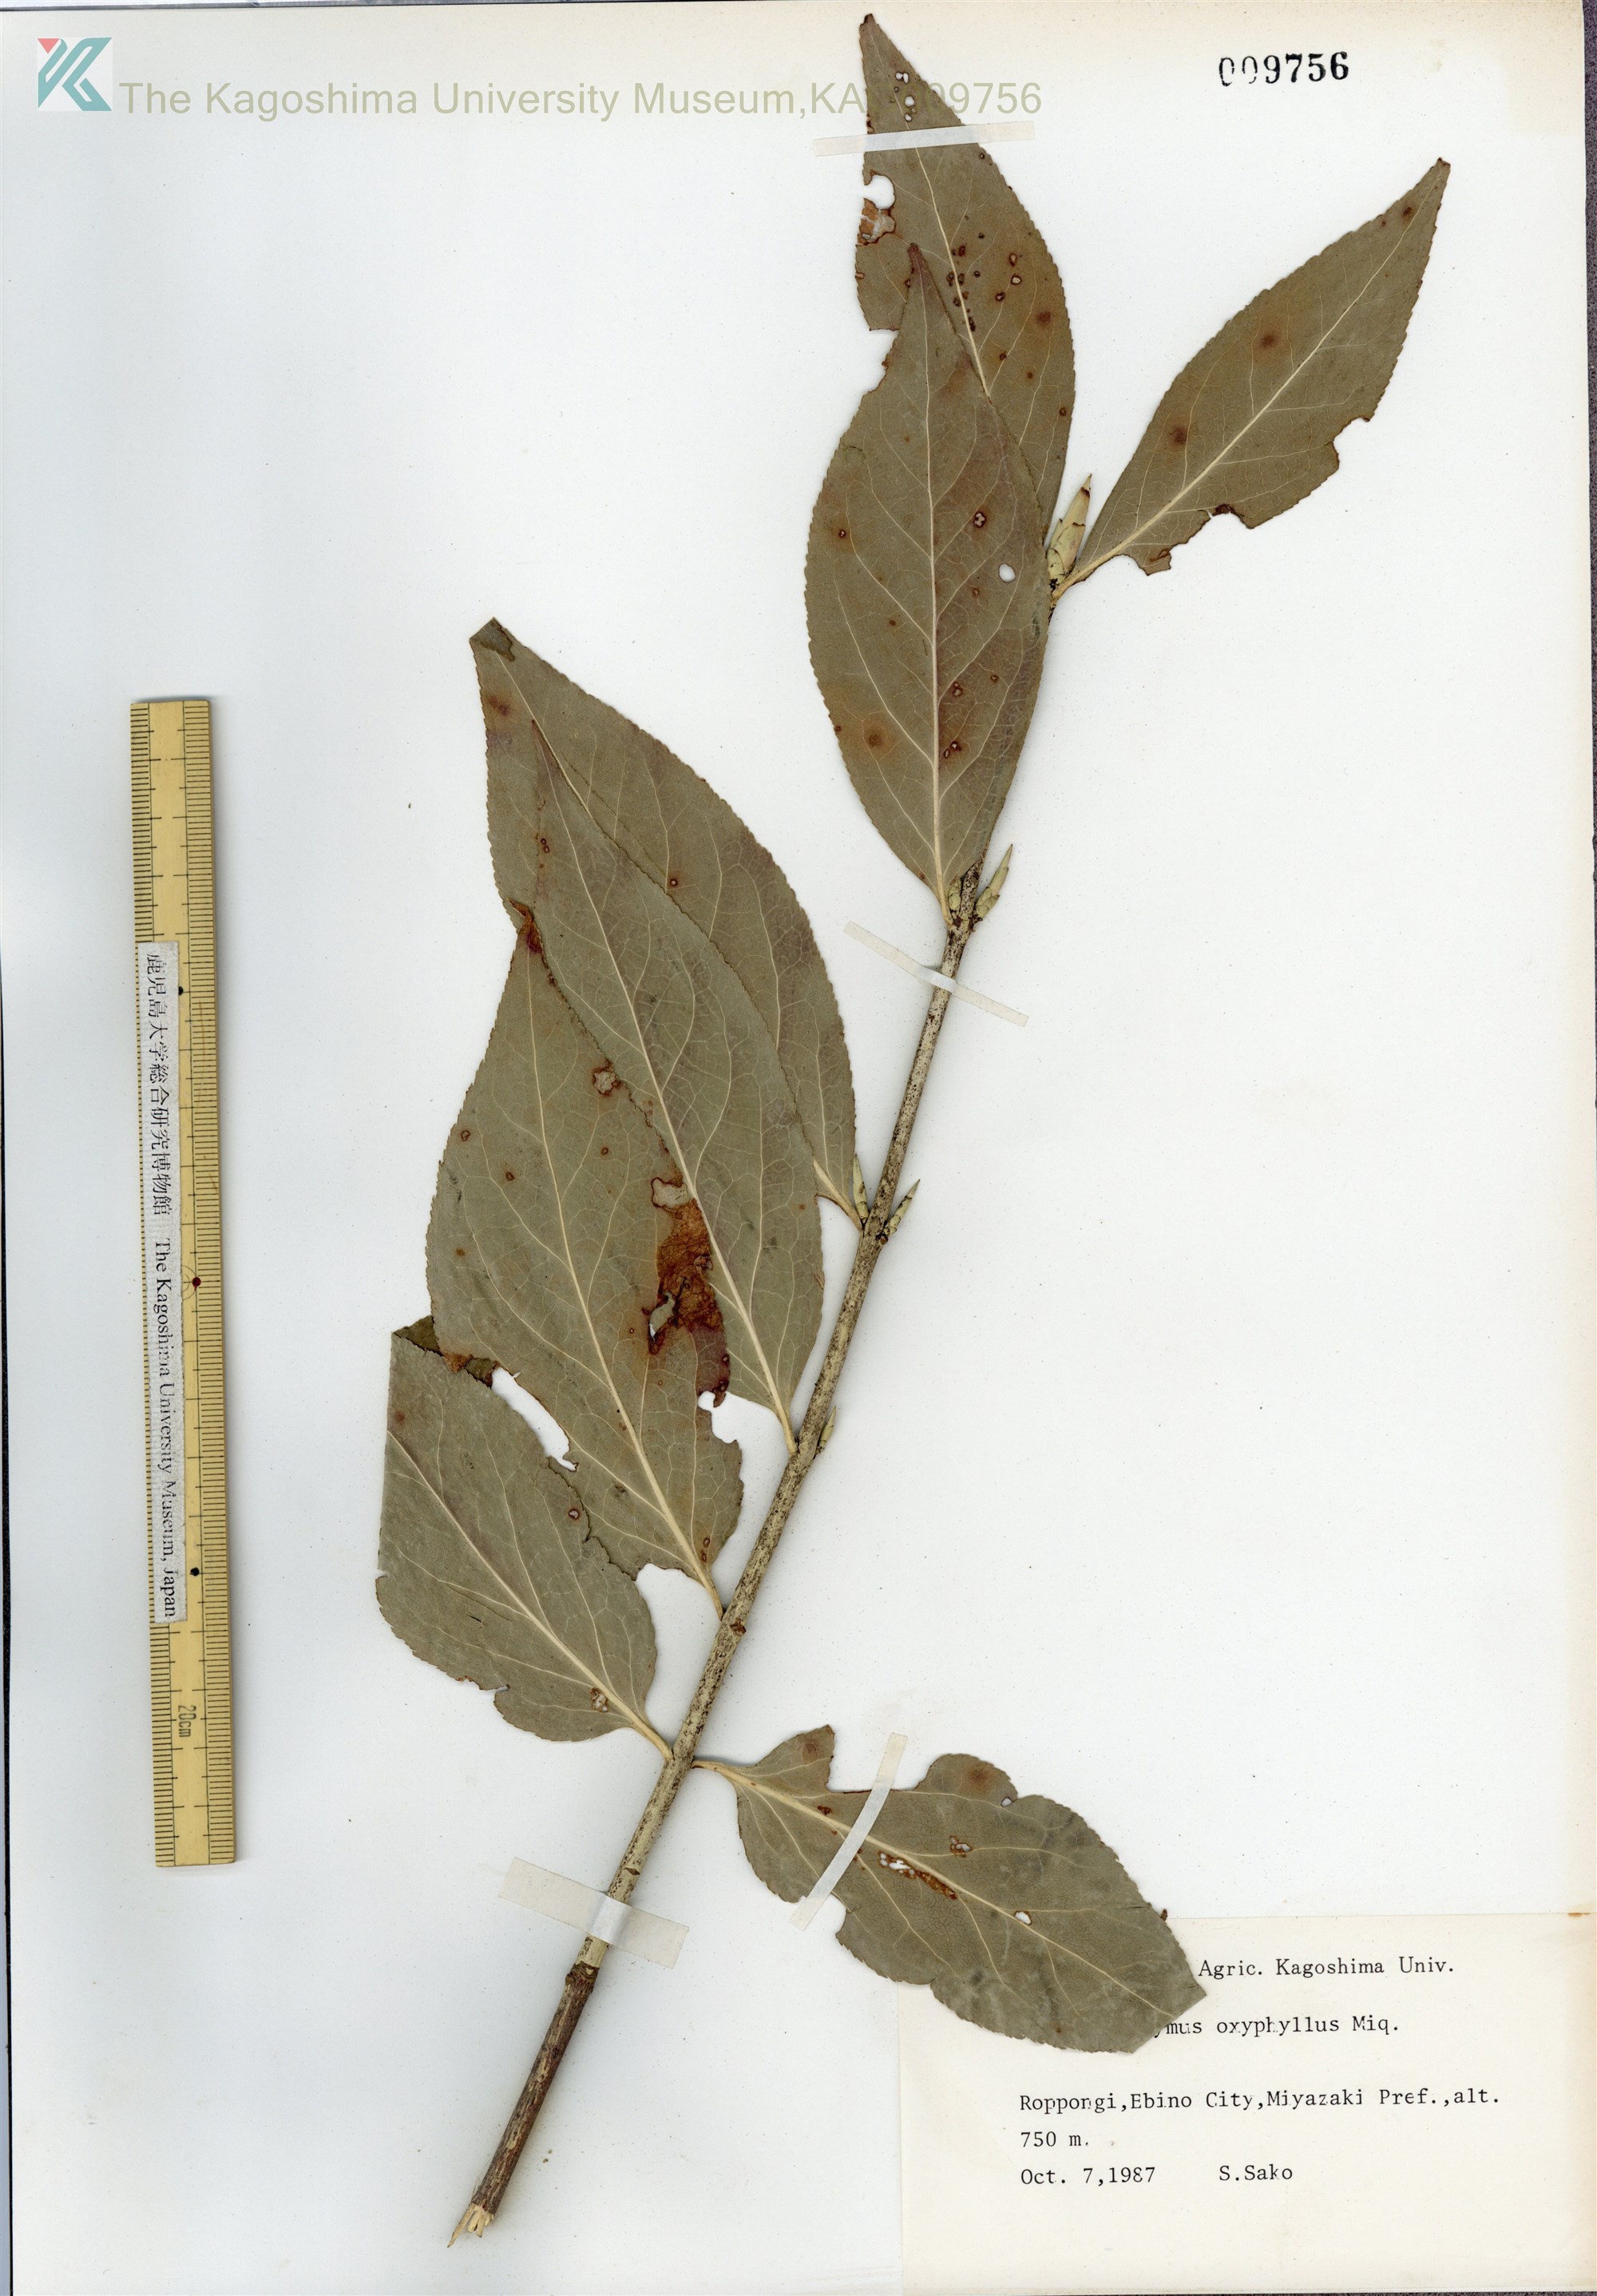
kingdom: Plantae
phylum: Tracheophyta
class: Magnoliopsida
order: Celastrales
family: Celastraceae
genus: Euonymus
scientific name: Euonymus oxyphyllus
